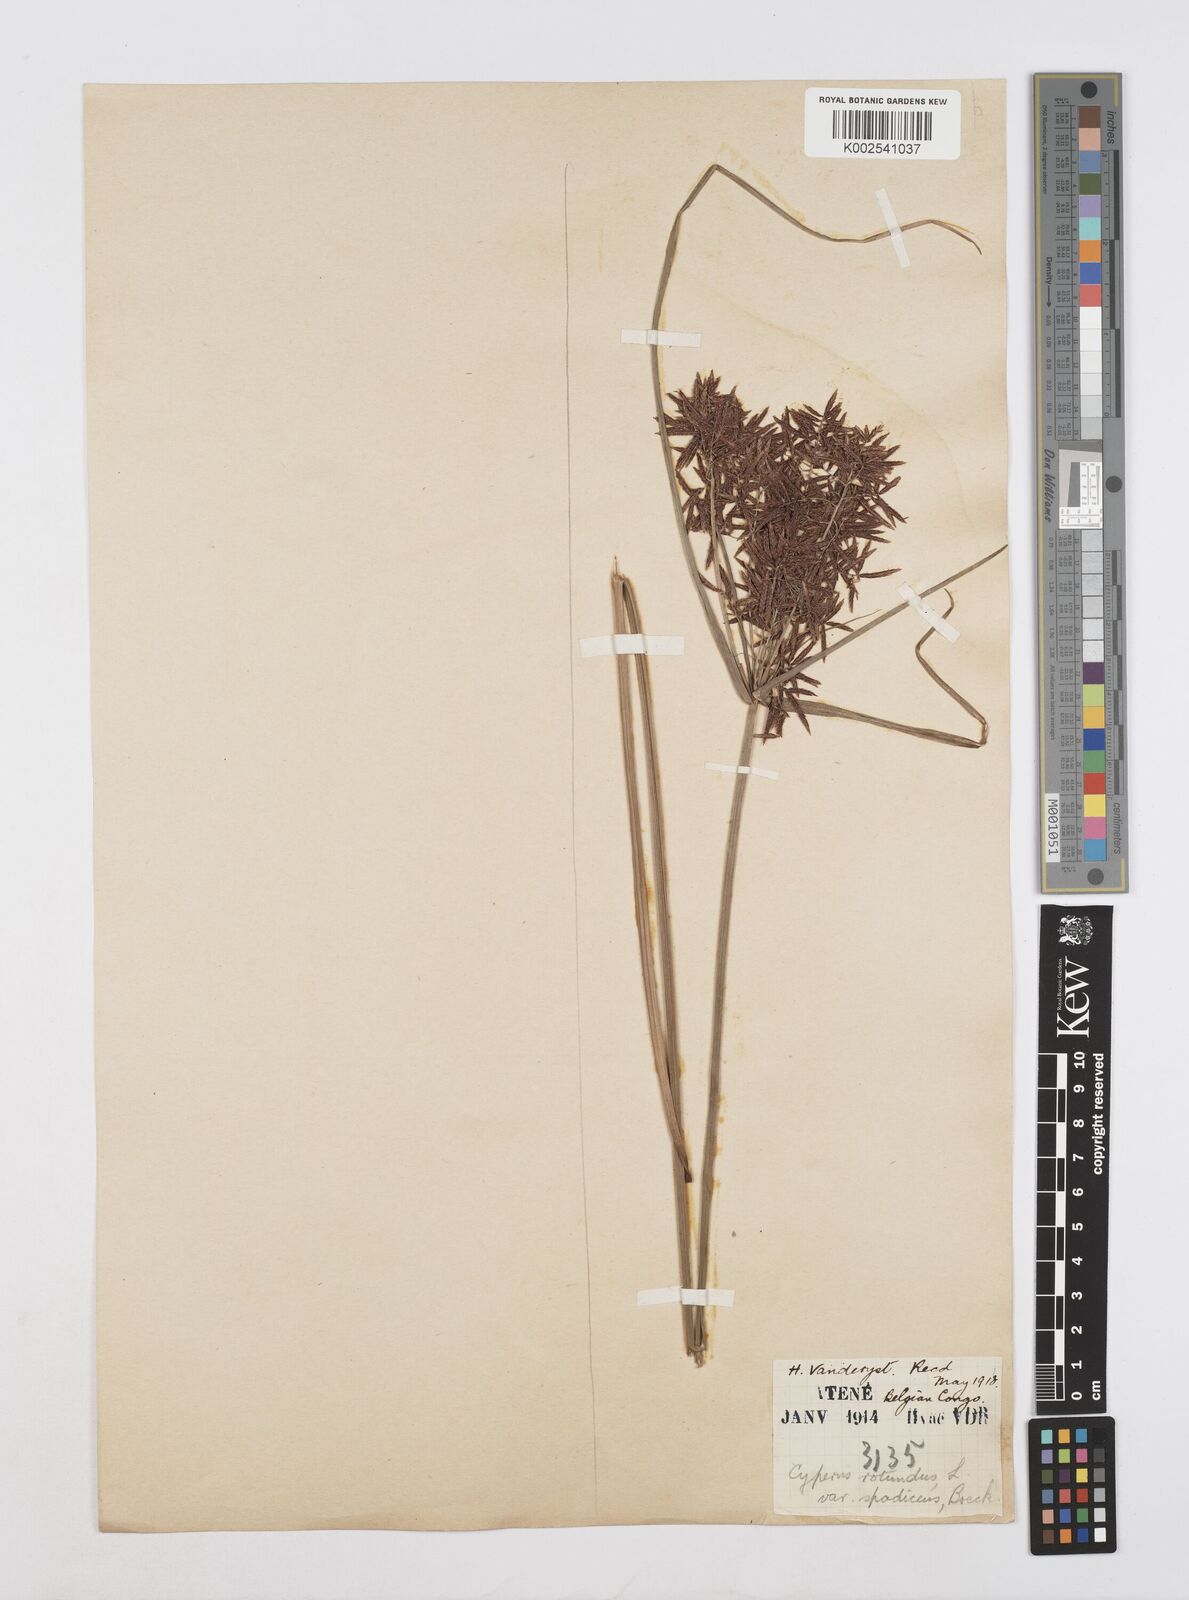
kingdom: Plantae
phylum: Tracheophyta
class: Liliopsida
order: Poales
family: Cyperaceae
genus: Cyperus
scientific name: Cyperus
